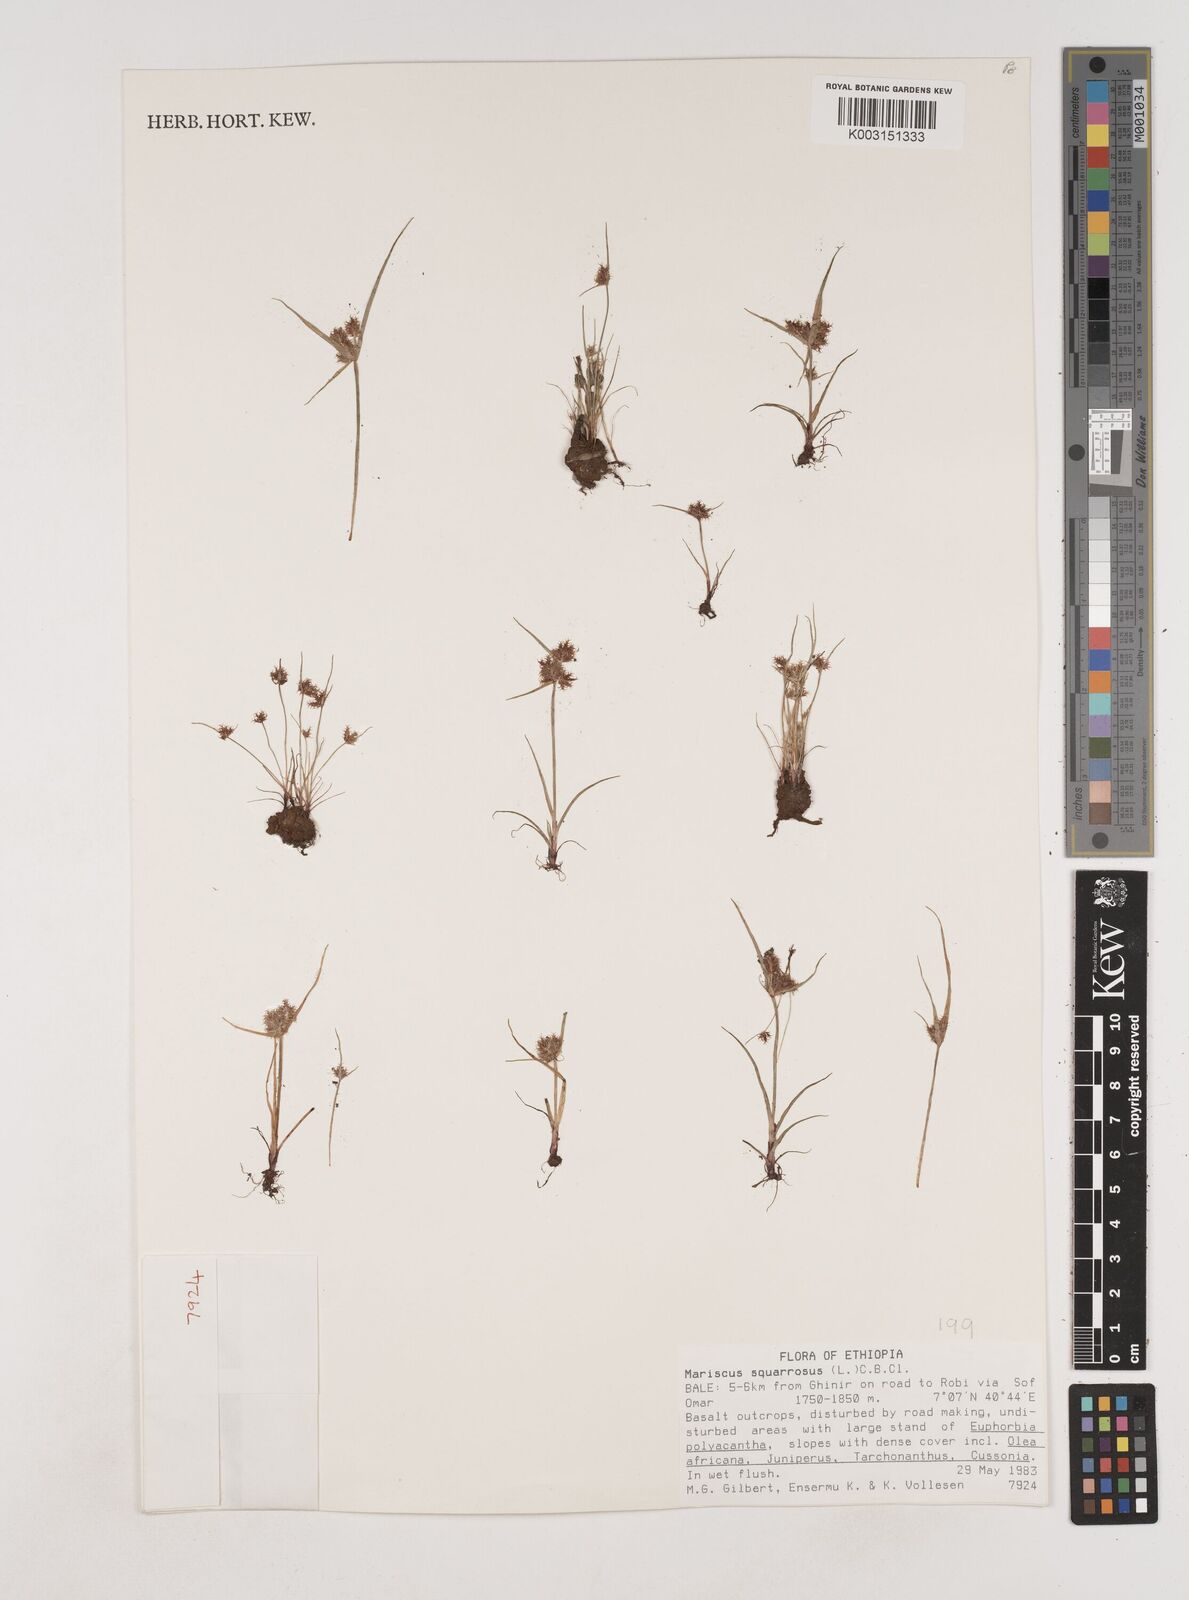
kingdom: Plantae
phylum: Tracheophyta
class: Liliopsida
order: Poales
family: Cyperaceae
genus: Cyperus
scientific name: Cyperus squarrosus
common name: Awned cyperus
